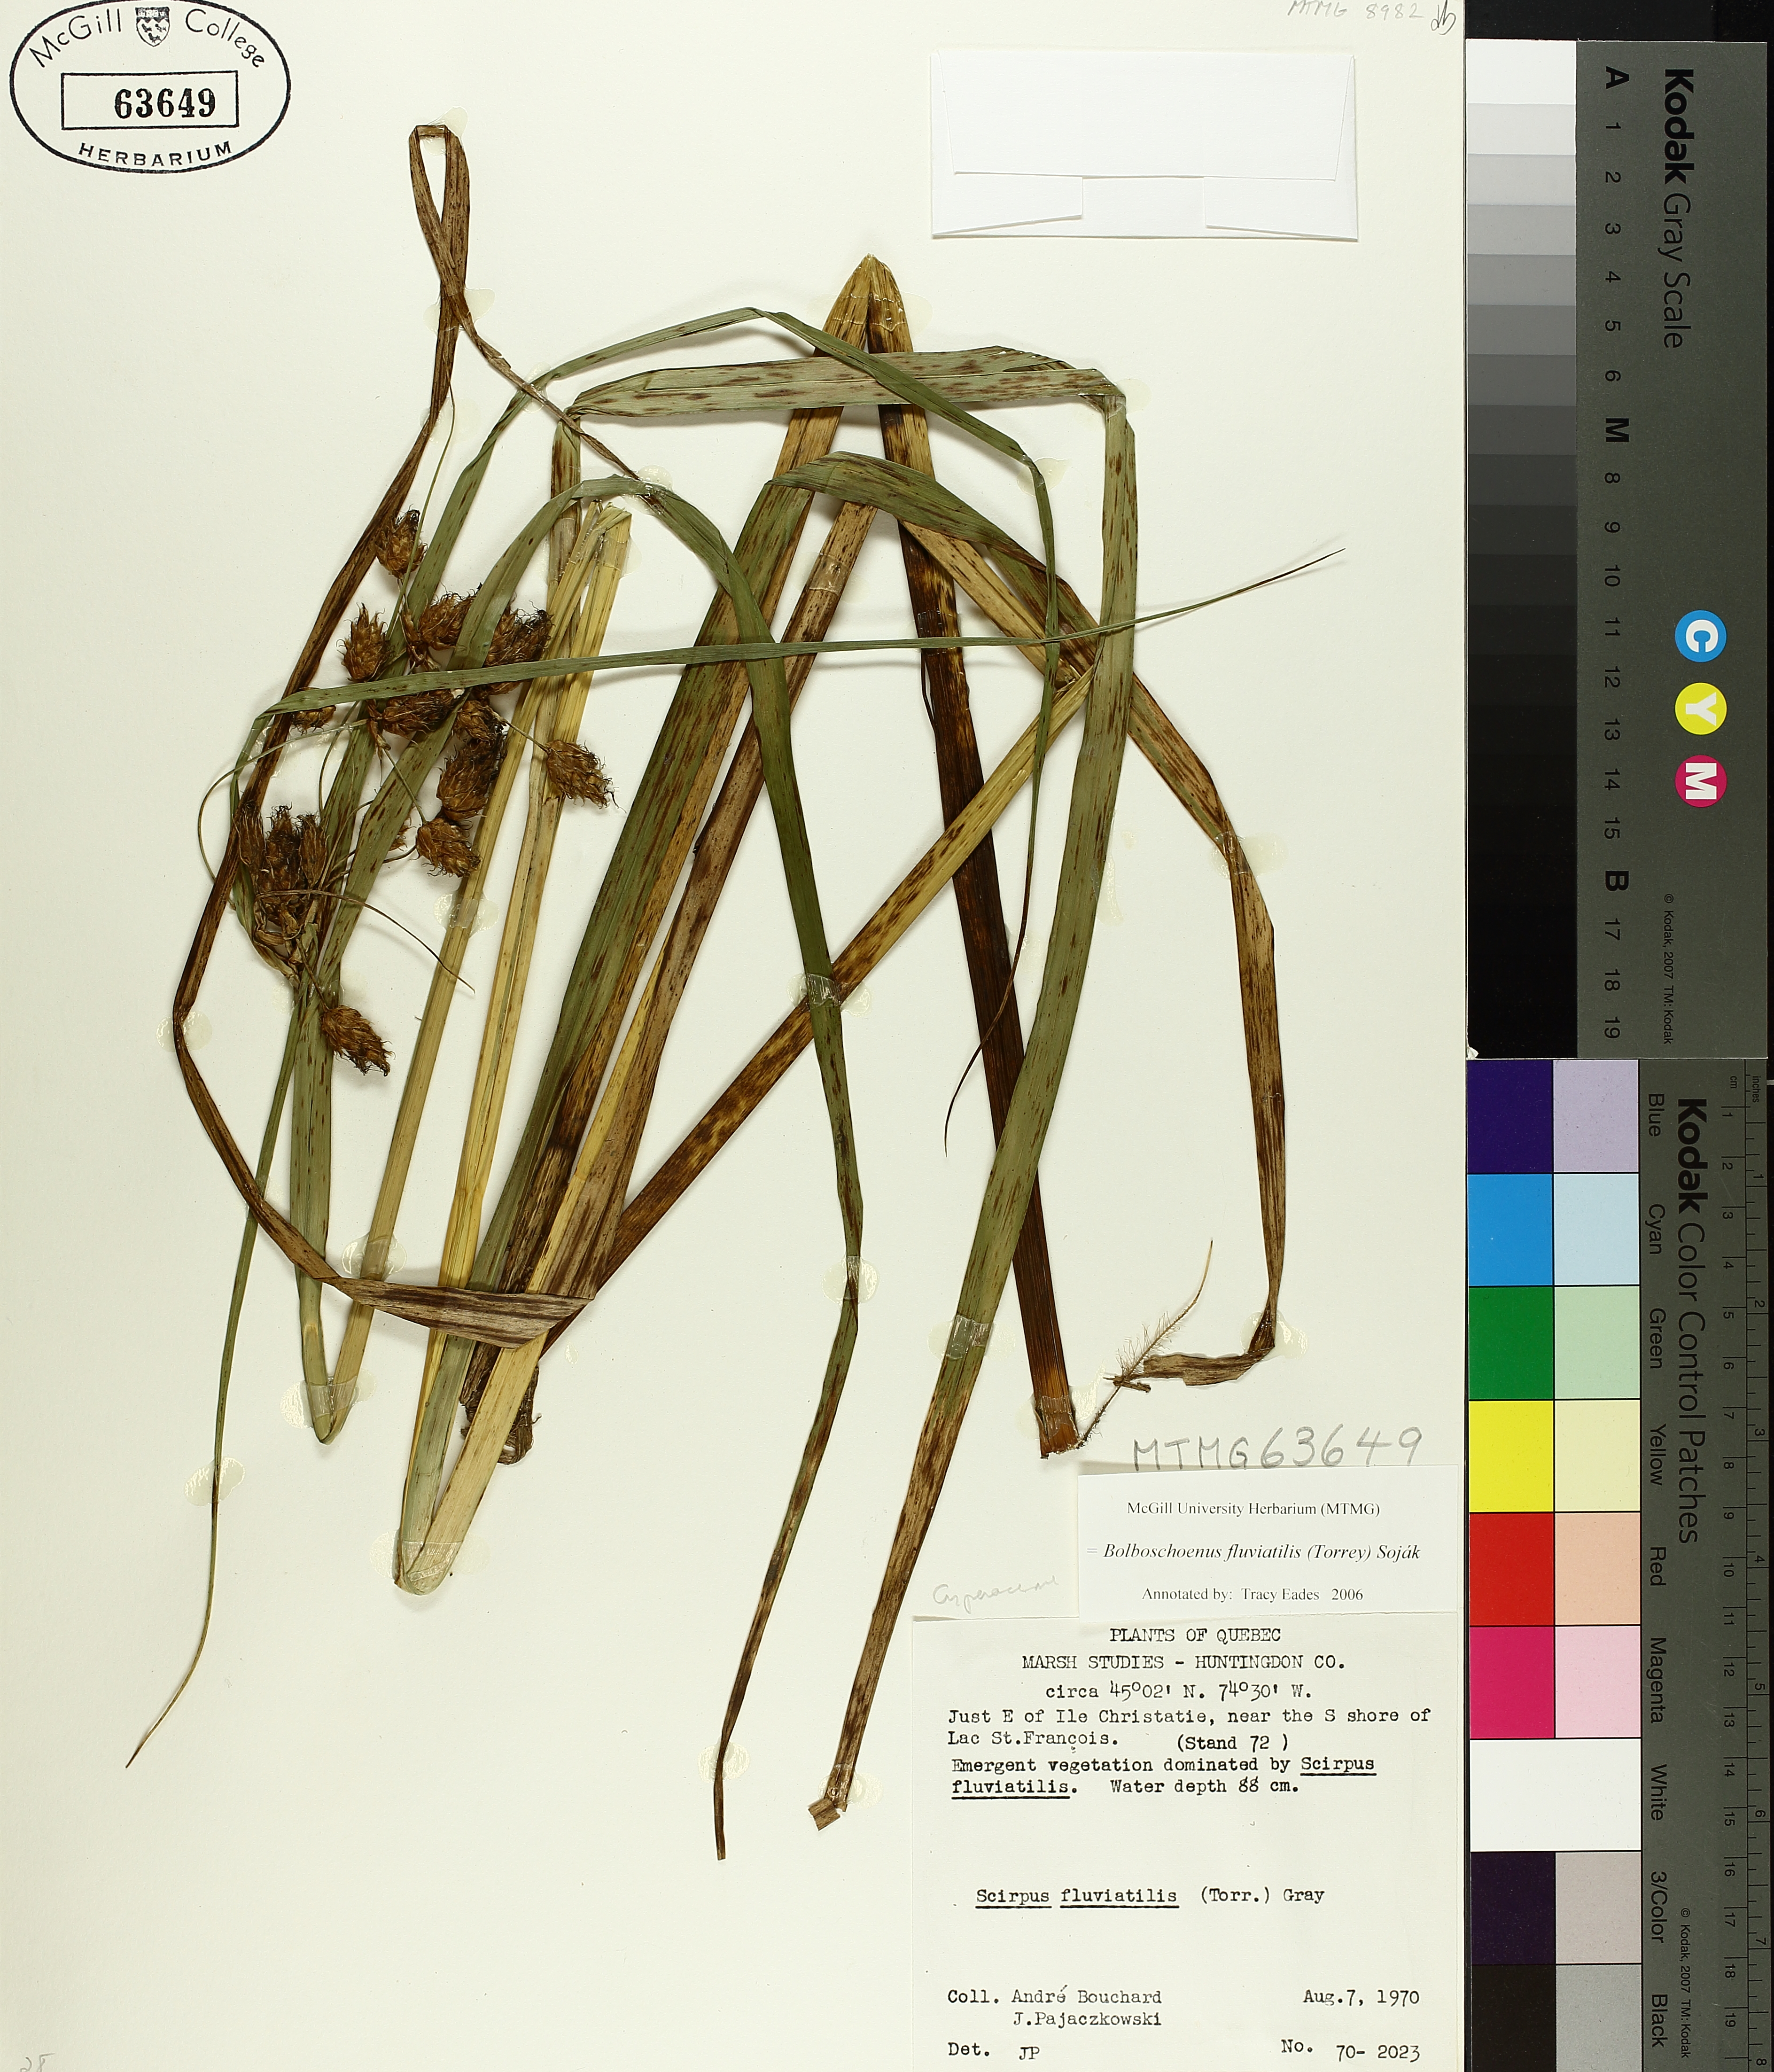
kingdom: Plantae
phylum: Tracheophyta
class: Liliopsida
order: Poales
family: Cyperaceae
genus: Bolboschoenus
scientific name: Bolboschoenus fluviatilis
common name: River bulrush
